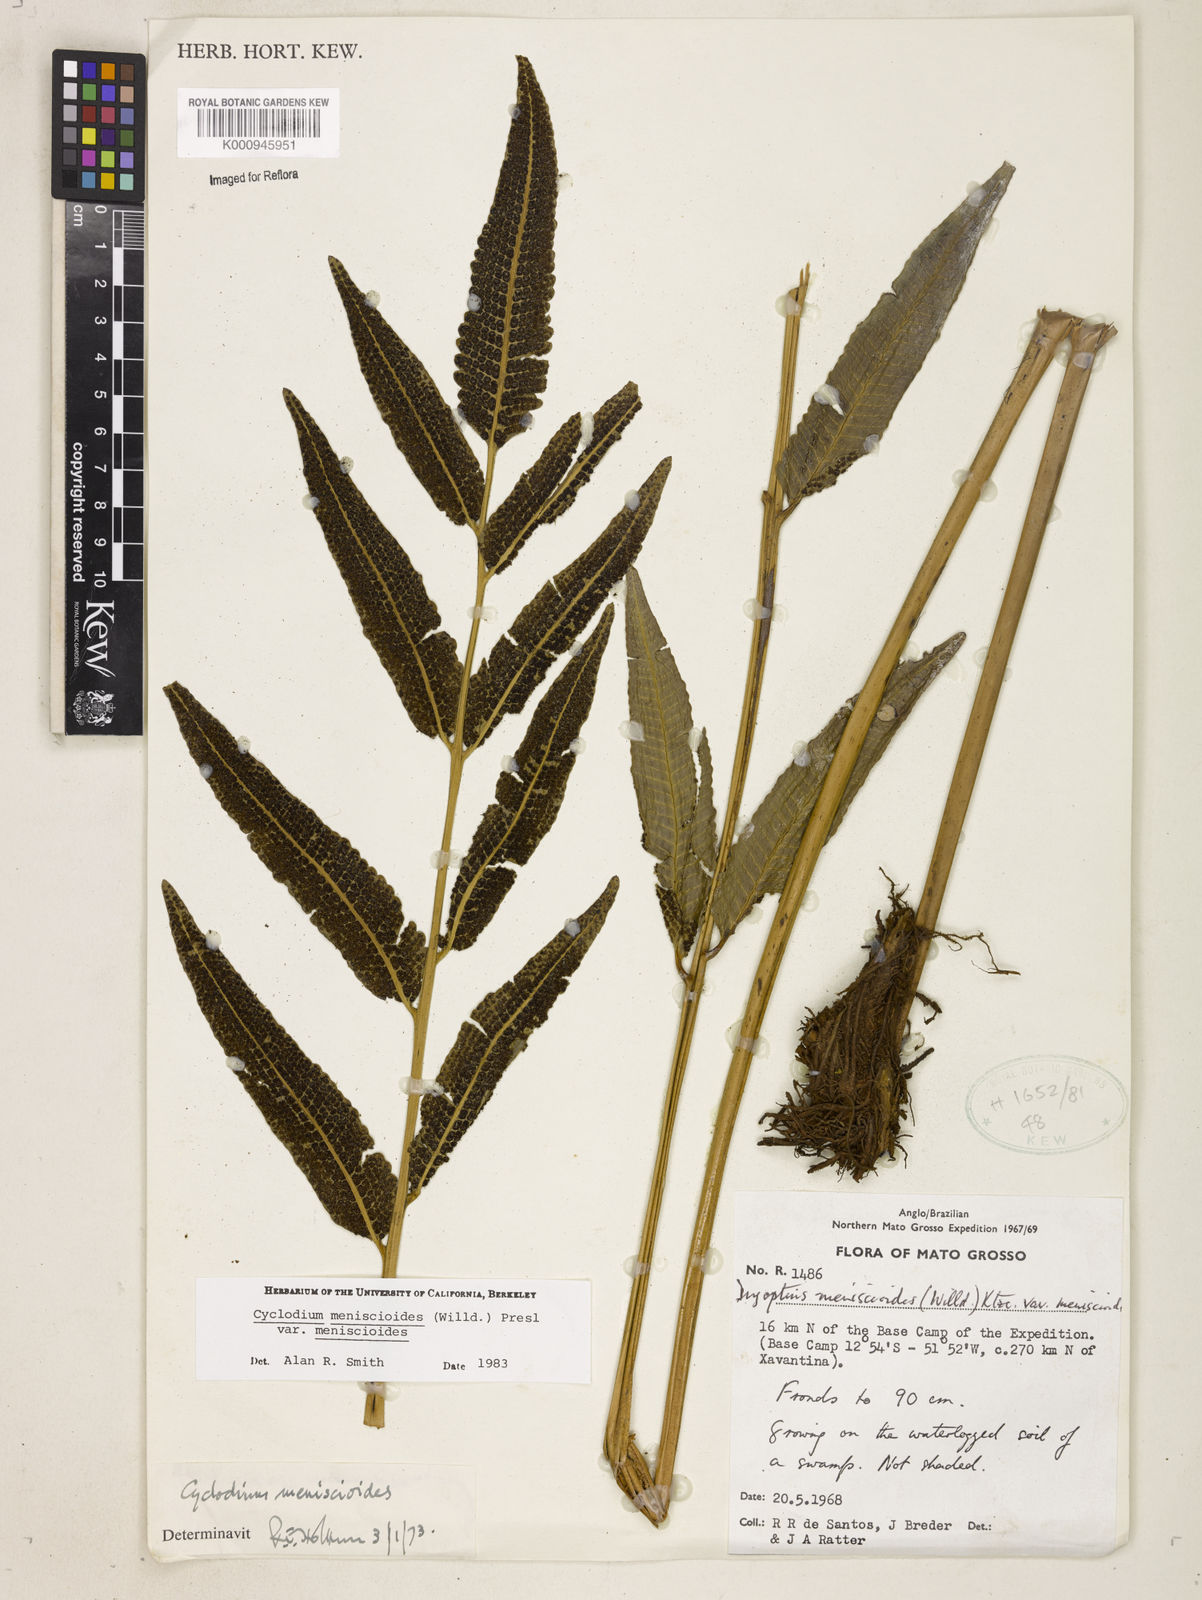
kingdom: Plantae
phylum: Tracheophyta
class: Polypodiopsida
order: Polypodiales
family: Dryopteridaceae
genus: Cyclodium
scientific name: Cyclodium meniscioides
